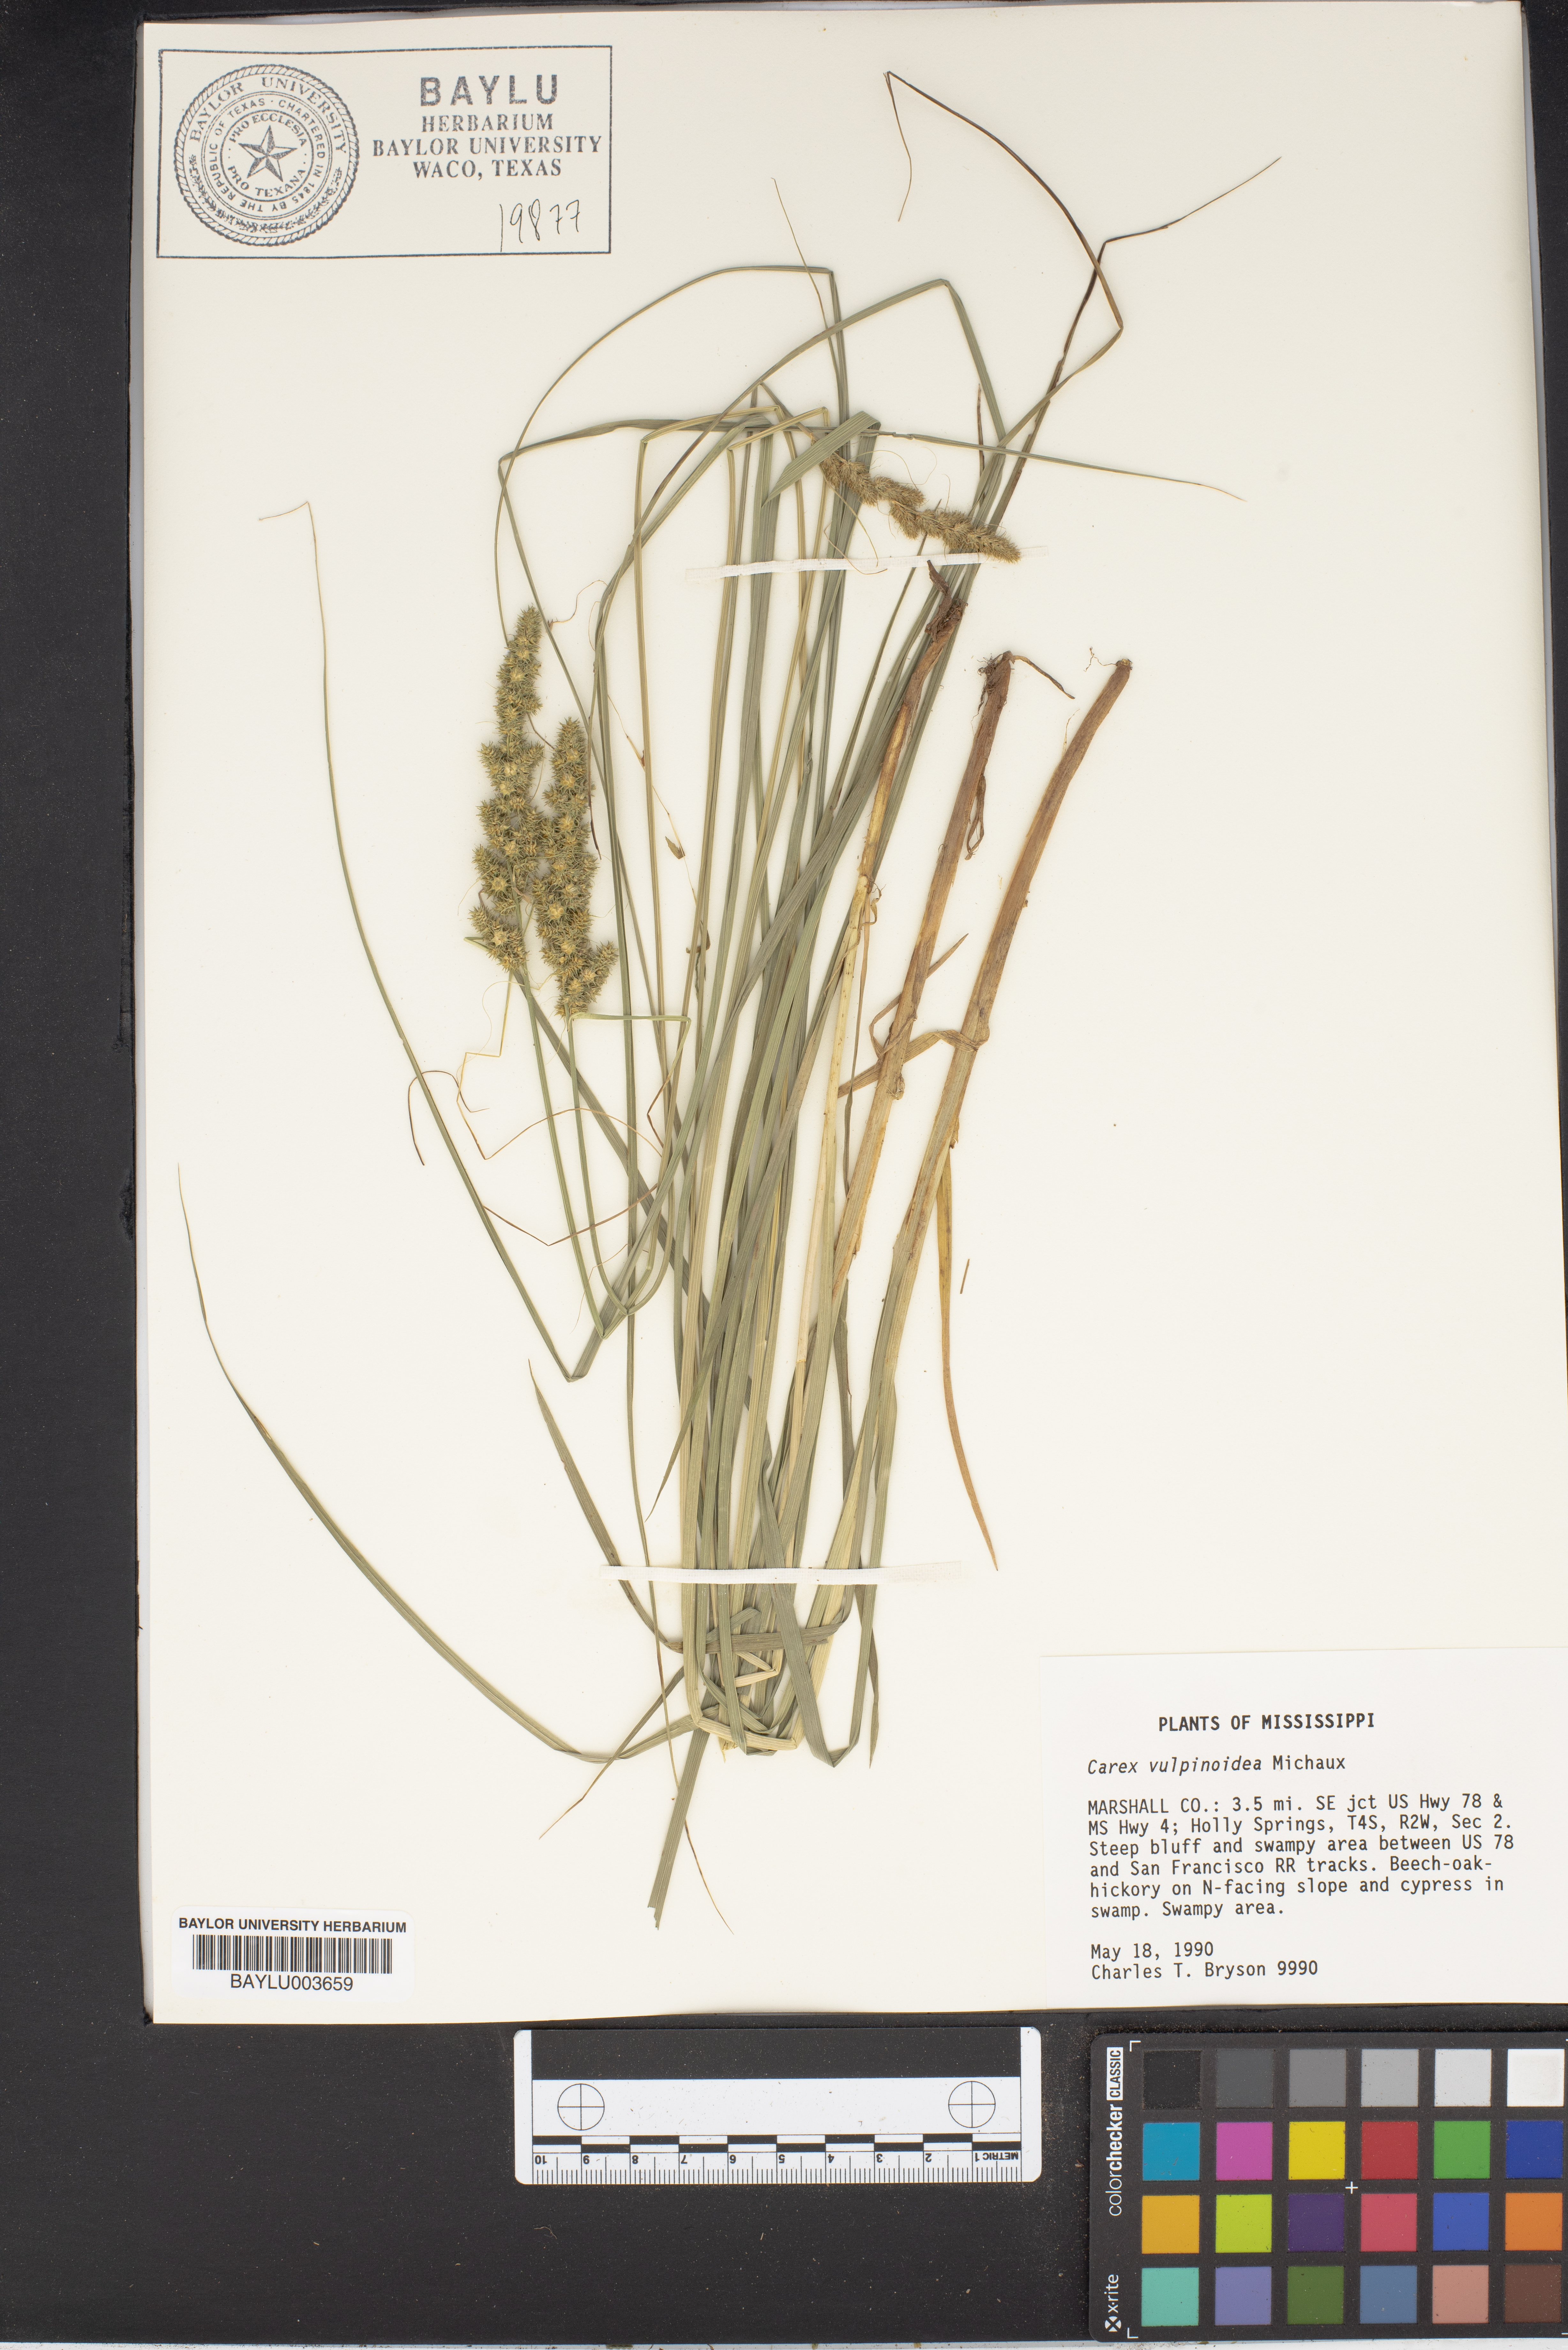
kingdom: Plantae
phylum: Tracheophyta
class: Liliopsida
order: Poales
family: Cyperaceae
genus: Carex
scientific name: Carex vulpinoidea
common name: American fox-sedge
